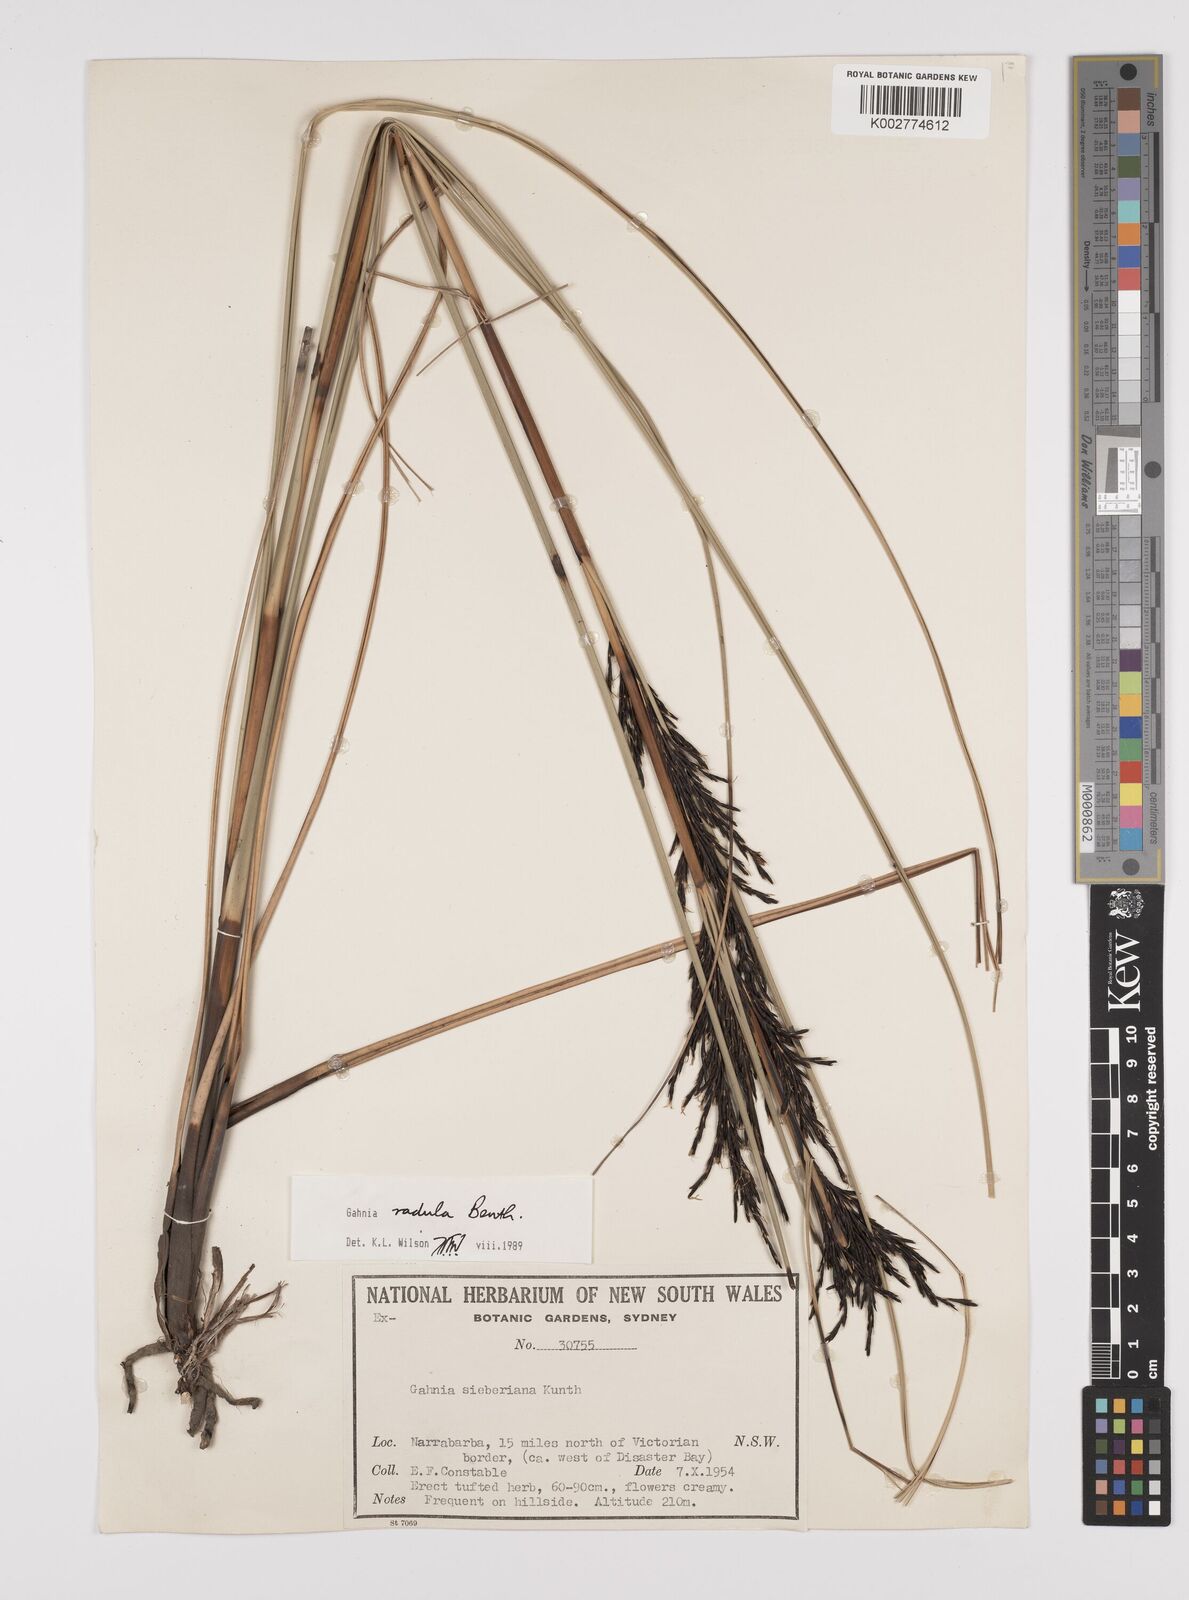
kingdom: Plantae
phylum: Tracheophyta
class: Liliopsida
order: Poales
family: Cyperaceae
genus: Gahnia
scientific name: Gahnia radula
